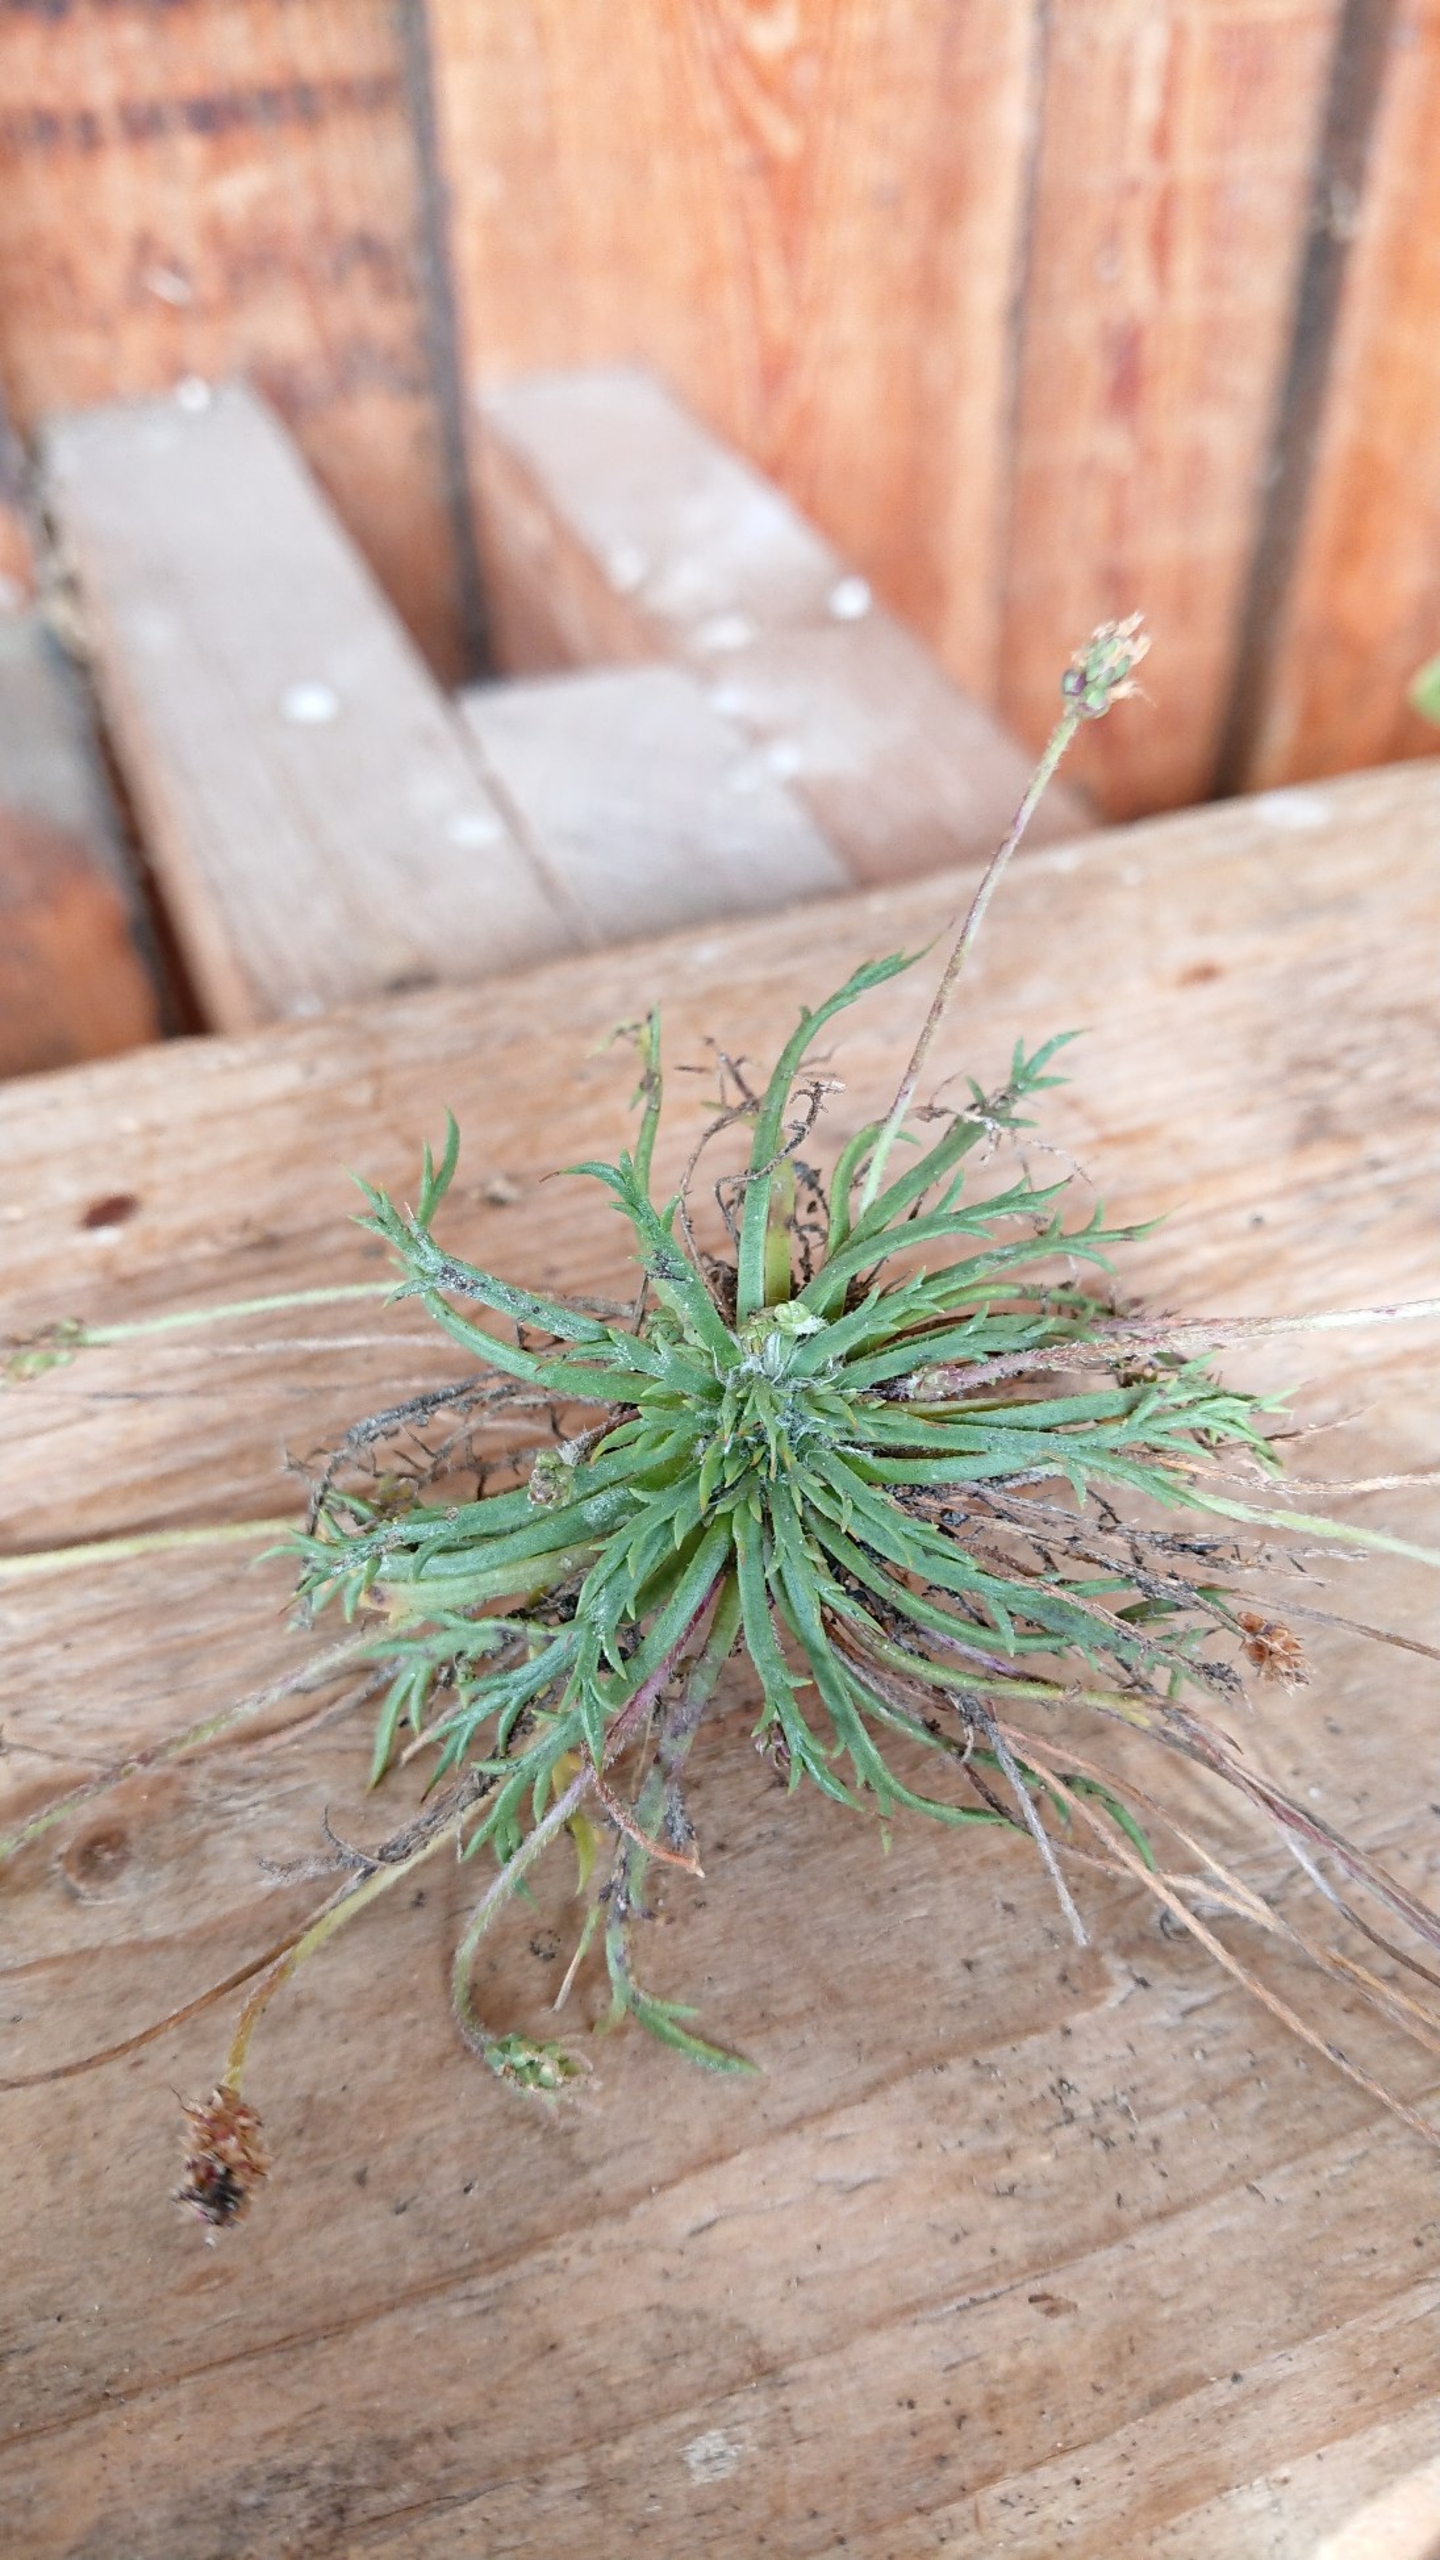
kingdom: Plantae
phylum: Tracheophyta
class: Magnoliopsida
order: Lamiales
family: Plantaginaceae
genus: Plantago
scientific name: Plantago coronopus
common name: Fliget vejbred
